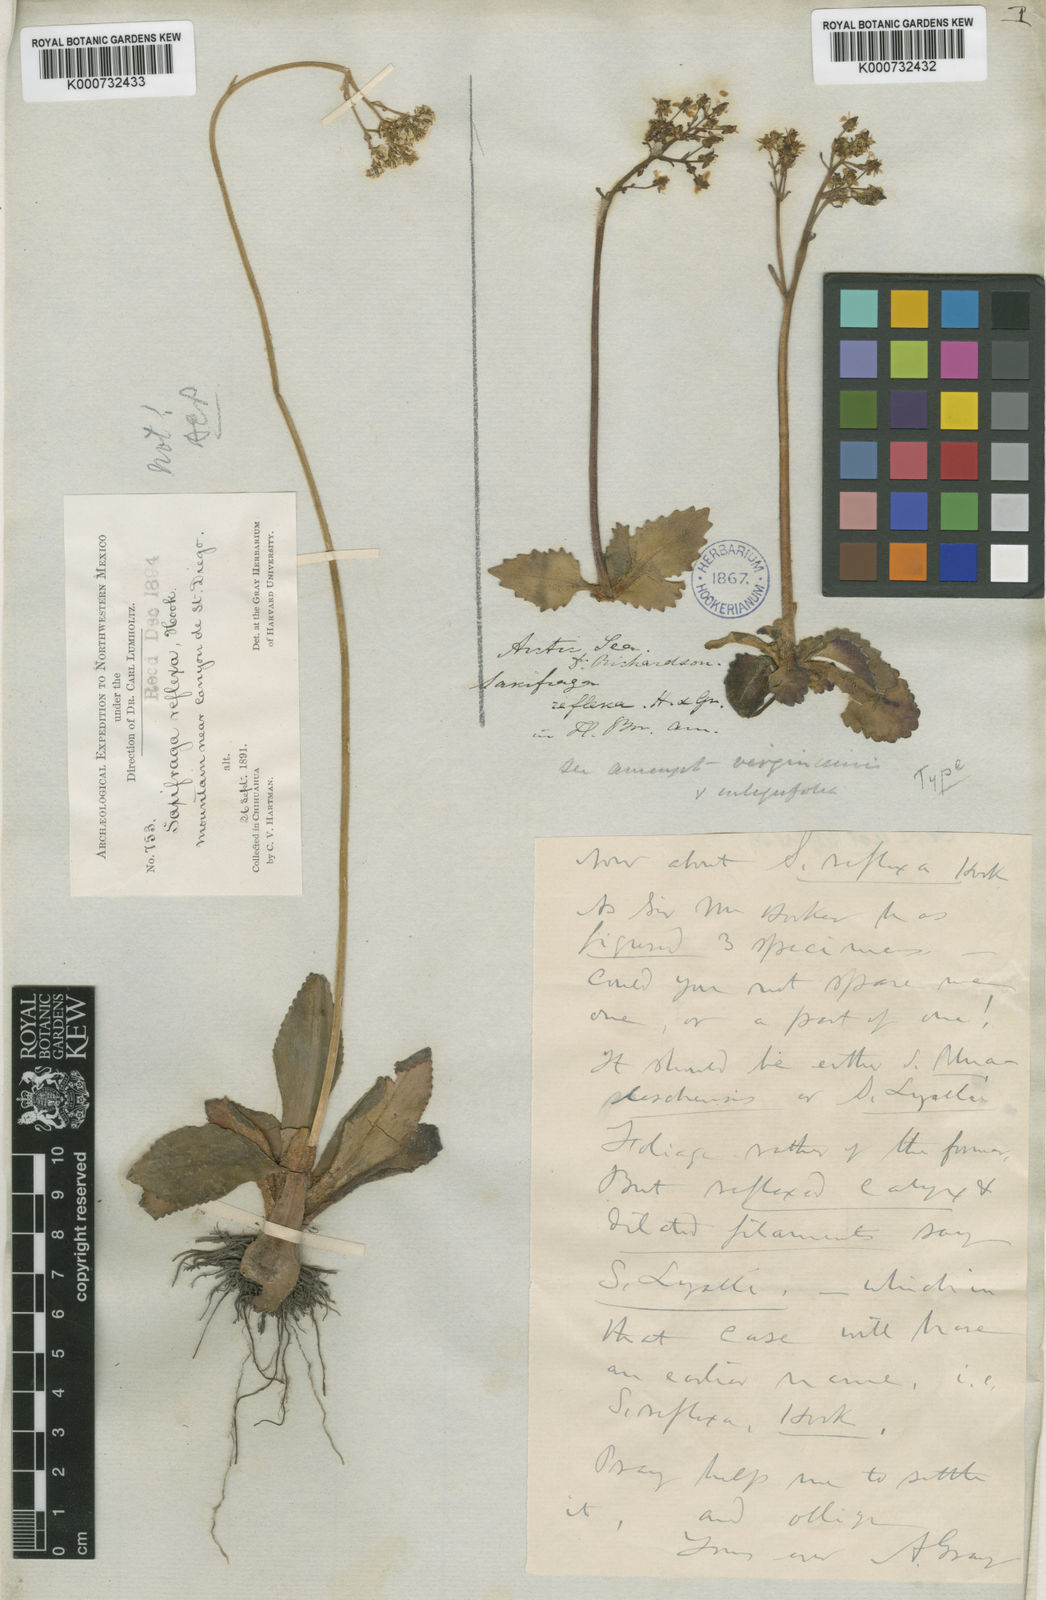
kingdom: Plantae
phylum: Tracheophyta
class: Magnoliopsida
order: Saxifragales
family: Saxifragaceae
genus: Micranthes
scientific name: Micranthes reflexa
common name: Reflexed saxifrage
